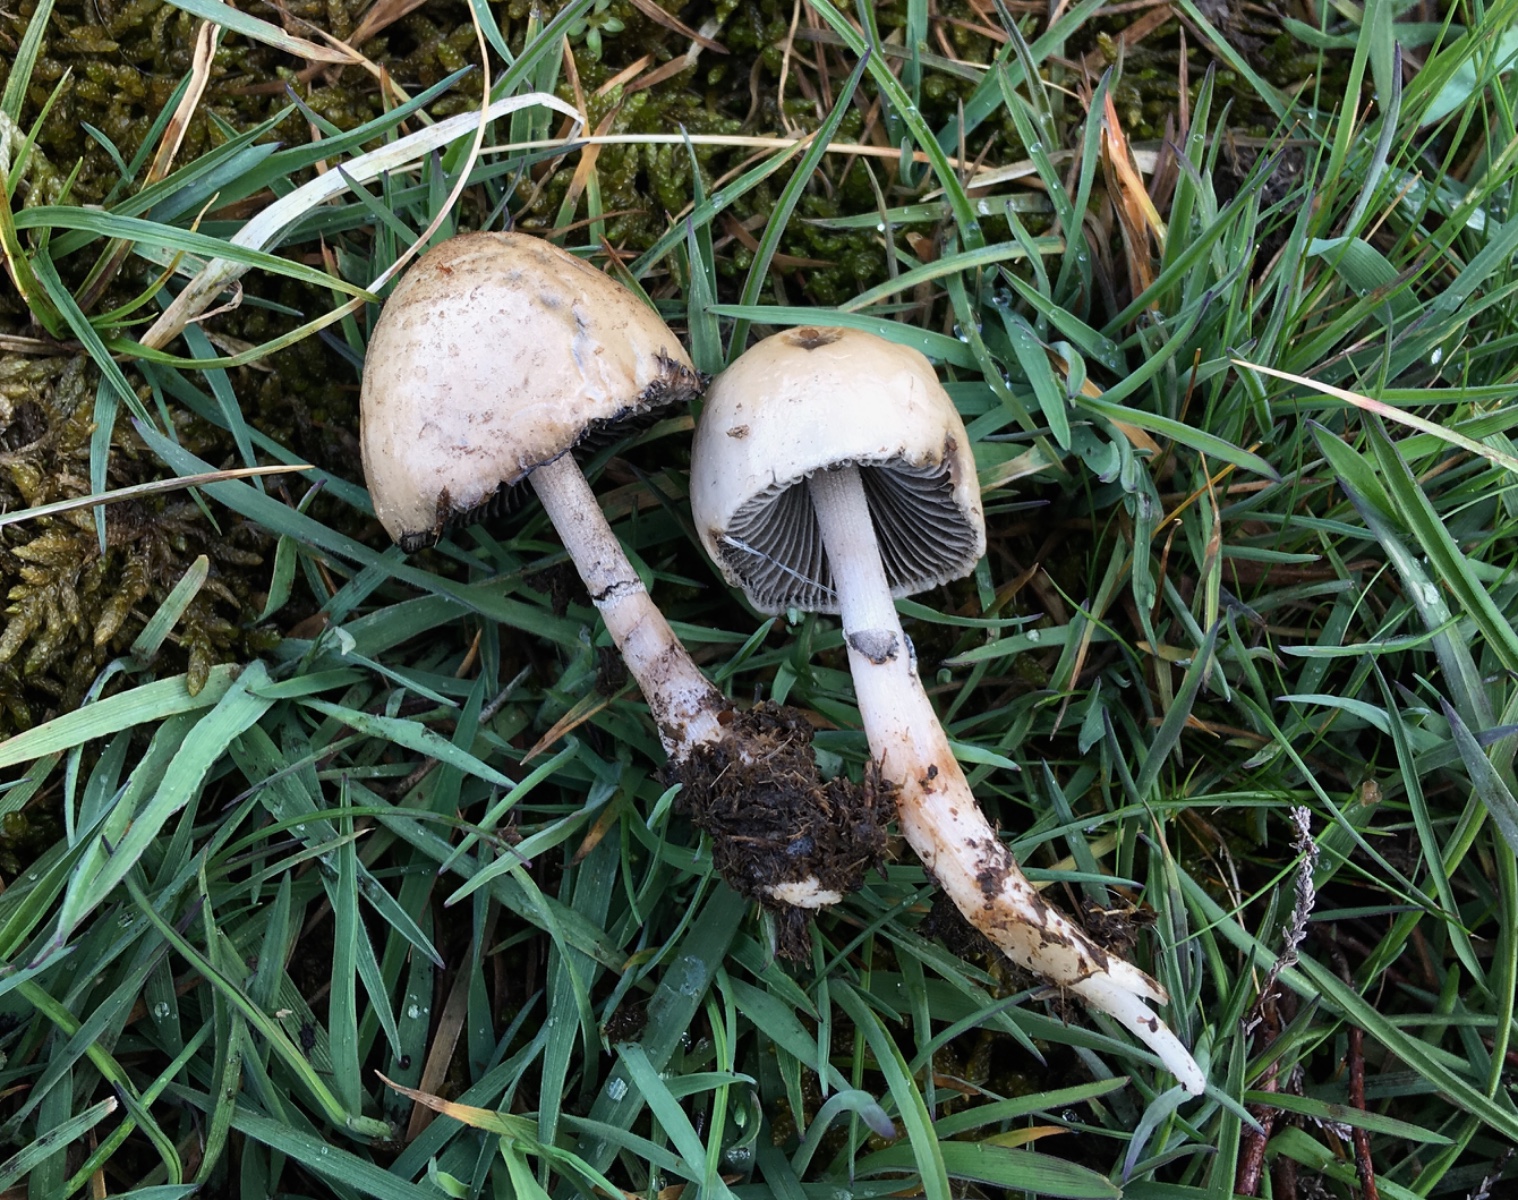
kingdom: Fungi
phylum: Basidiomycota
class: Agaricomycetes
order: Agaricales
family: Bolbitiaceae
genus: Panaeolus
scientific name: Panaeolus semiovatus
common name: ring-glanshat
